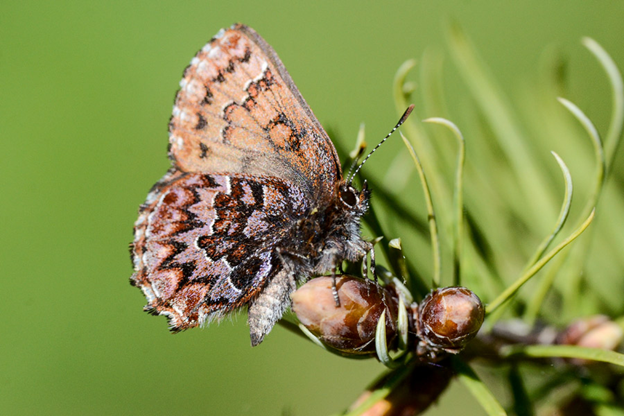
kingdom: Animalia
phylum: Arthropoda
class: Insecta
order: Lepidoptera
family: Lycaenidae
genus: Incisalia
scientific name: Incisalia eryphon
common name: Western Pine Elfin
